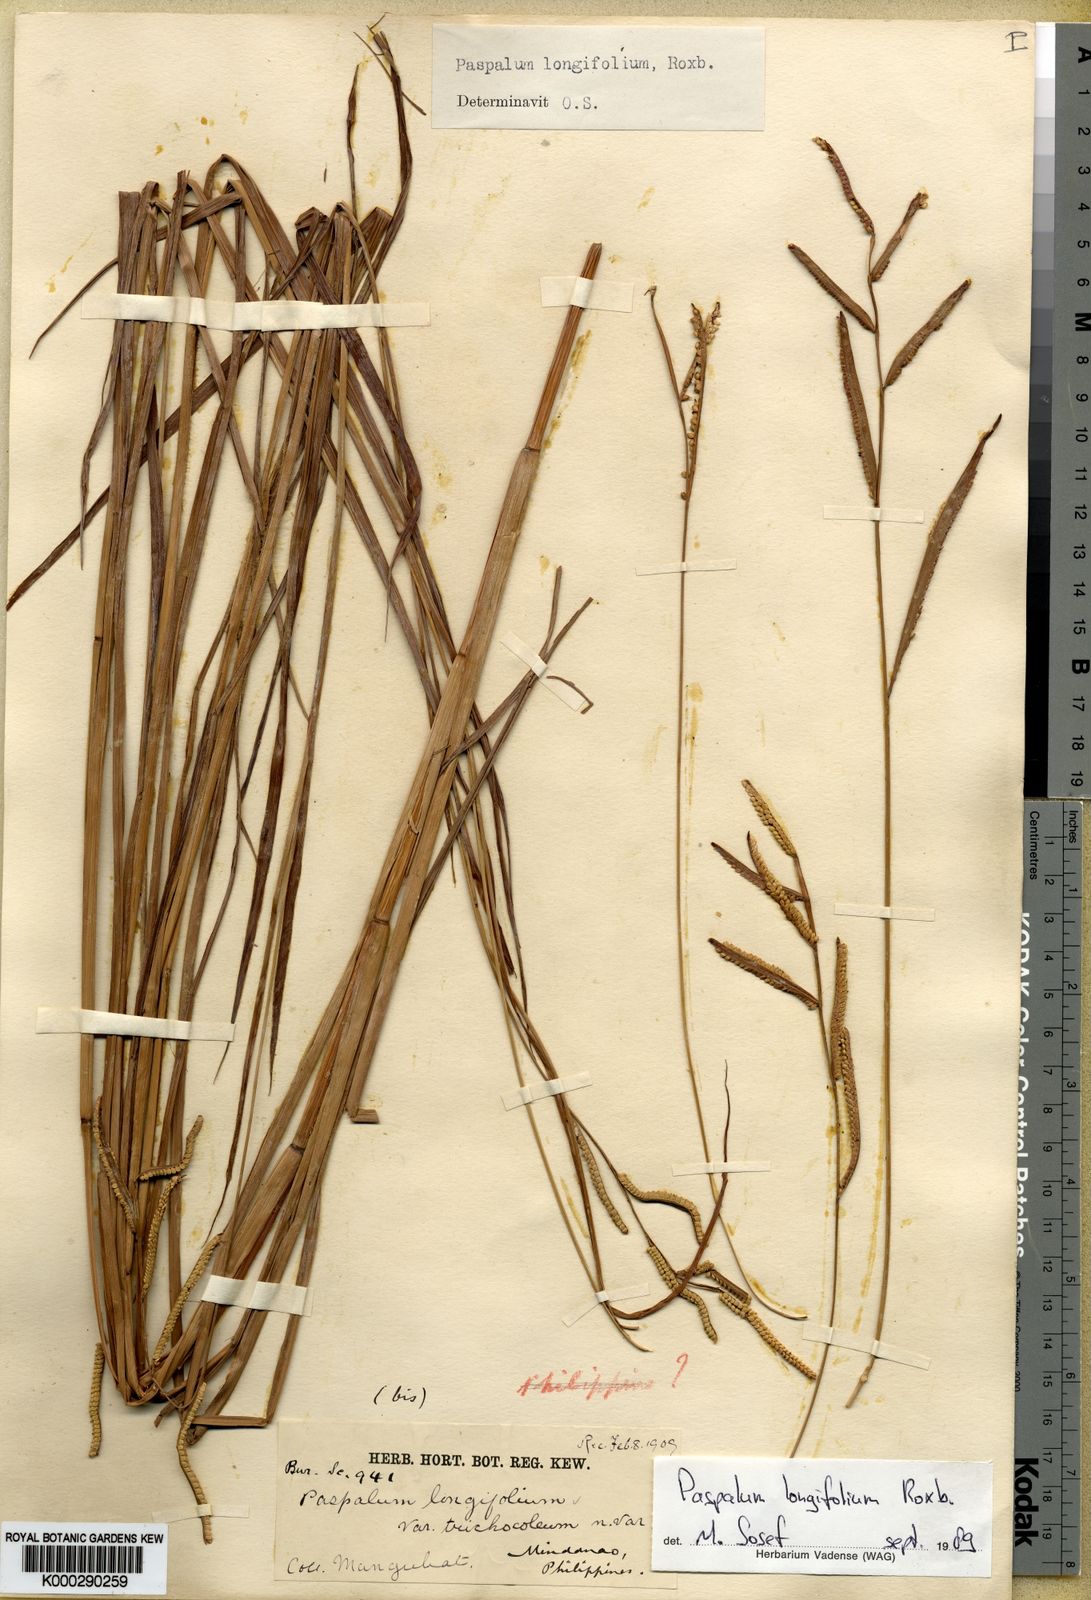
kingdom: Plantae
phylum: Tracheophyta
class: Liliopsida
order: Poales
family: Poaceae
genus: Paspalum
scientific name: Paspalum sumatrense
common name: Long-leaved paspalum
